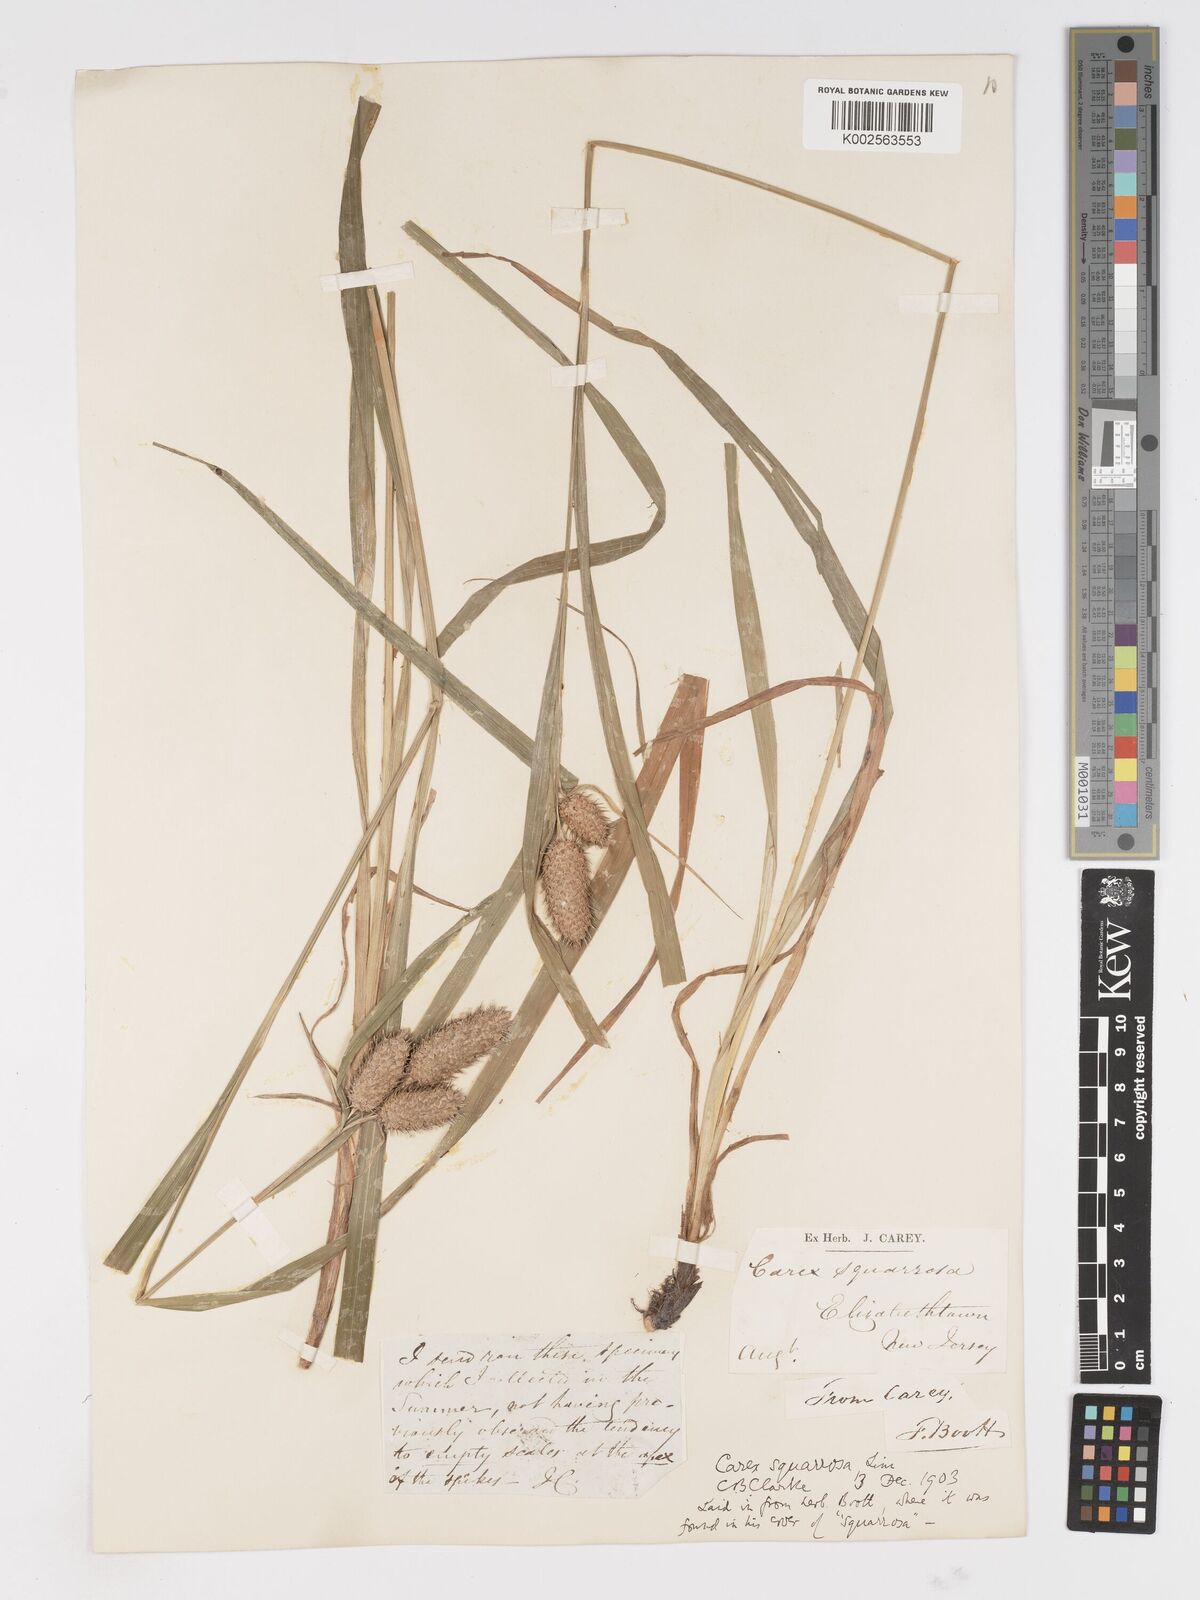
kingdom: Plantae
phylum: Tracheophyta
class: Liliopsida
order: Poales
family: Cyperaceae
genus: Carex
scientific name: Carex squarrosa
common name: Narrow-leaved cattail sedge
